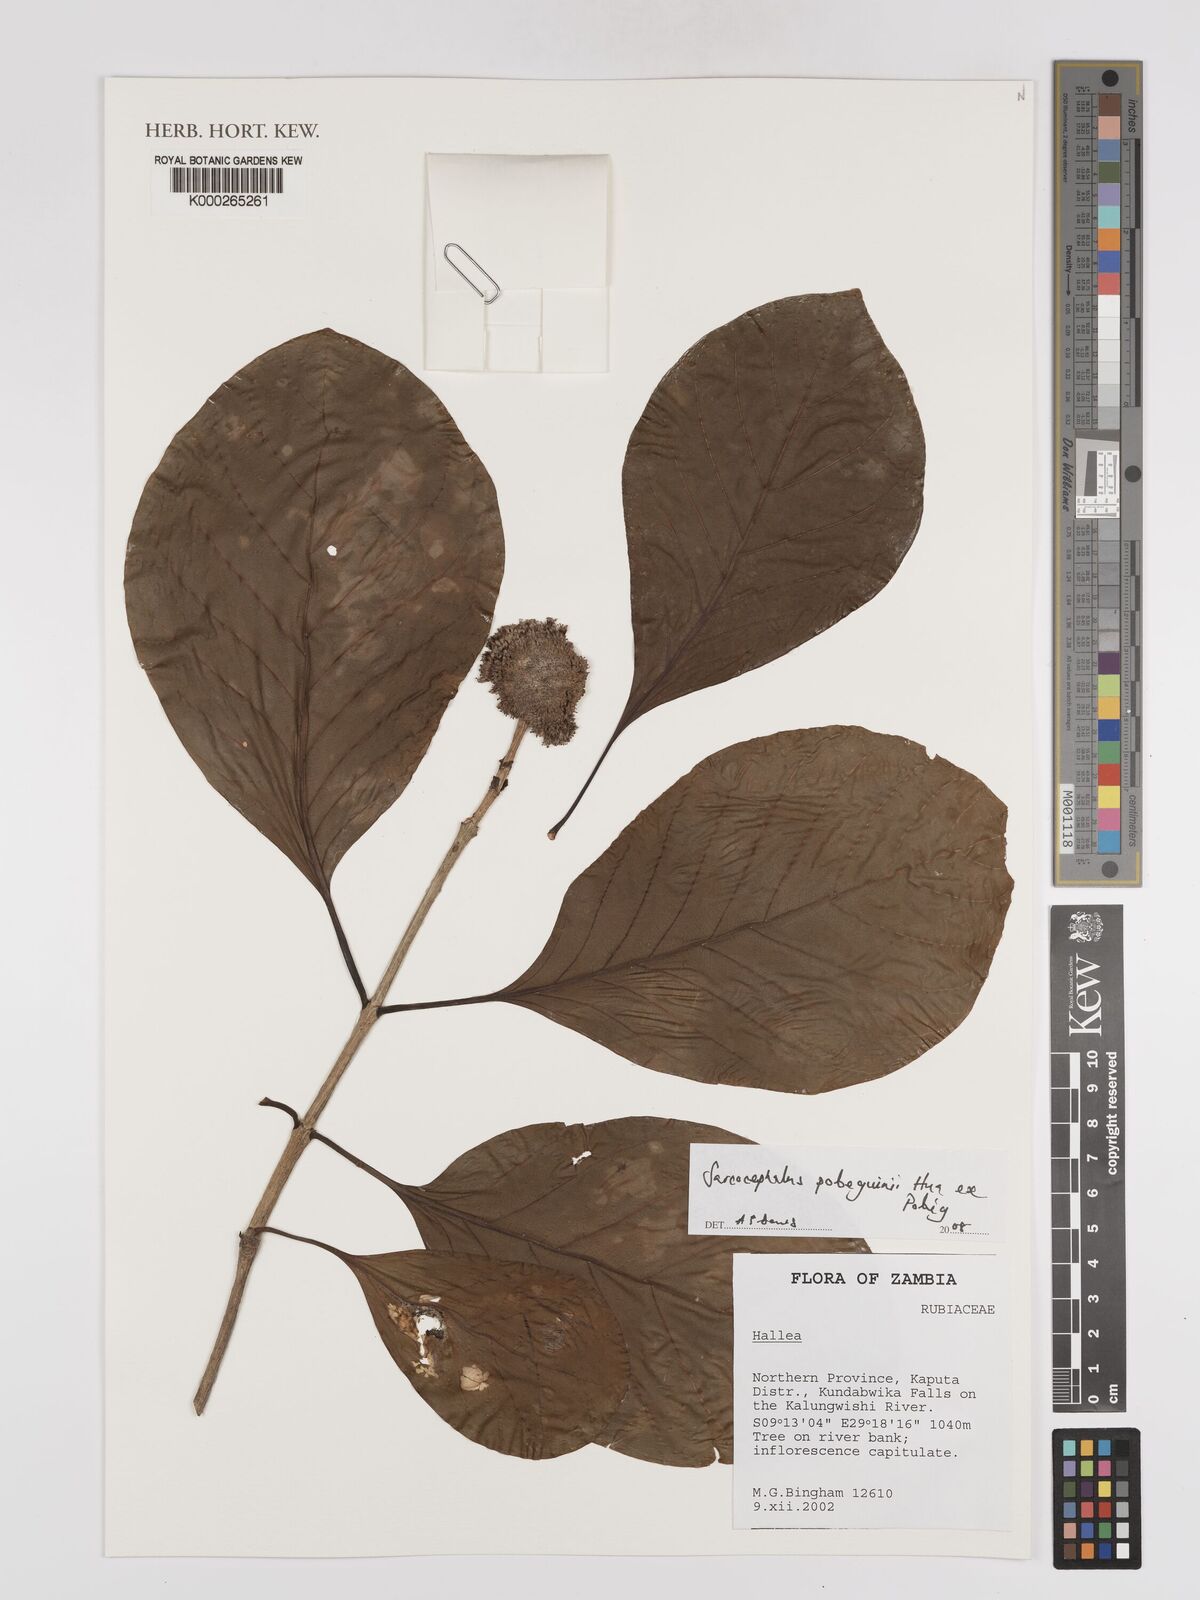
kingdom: Plantae
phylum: Tracheophyta
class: Magnoliopsida
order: Gentianales
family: Rubiaceae
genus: Nauclea
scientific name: Nauclea
